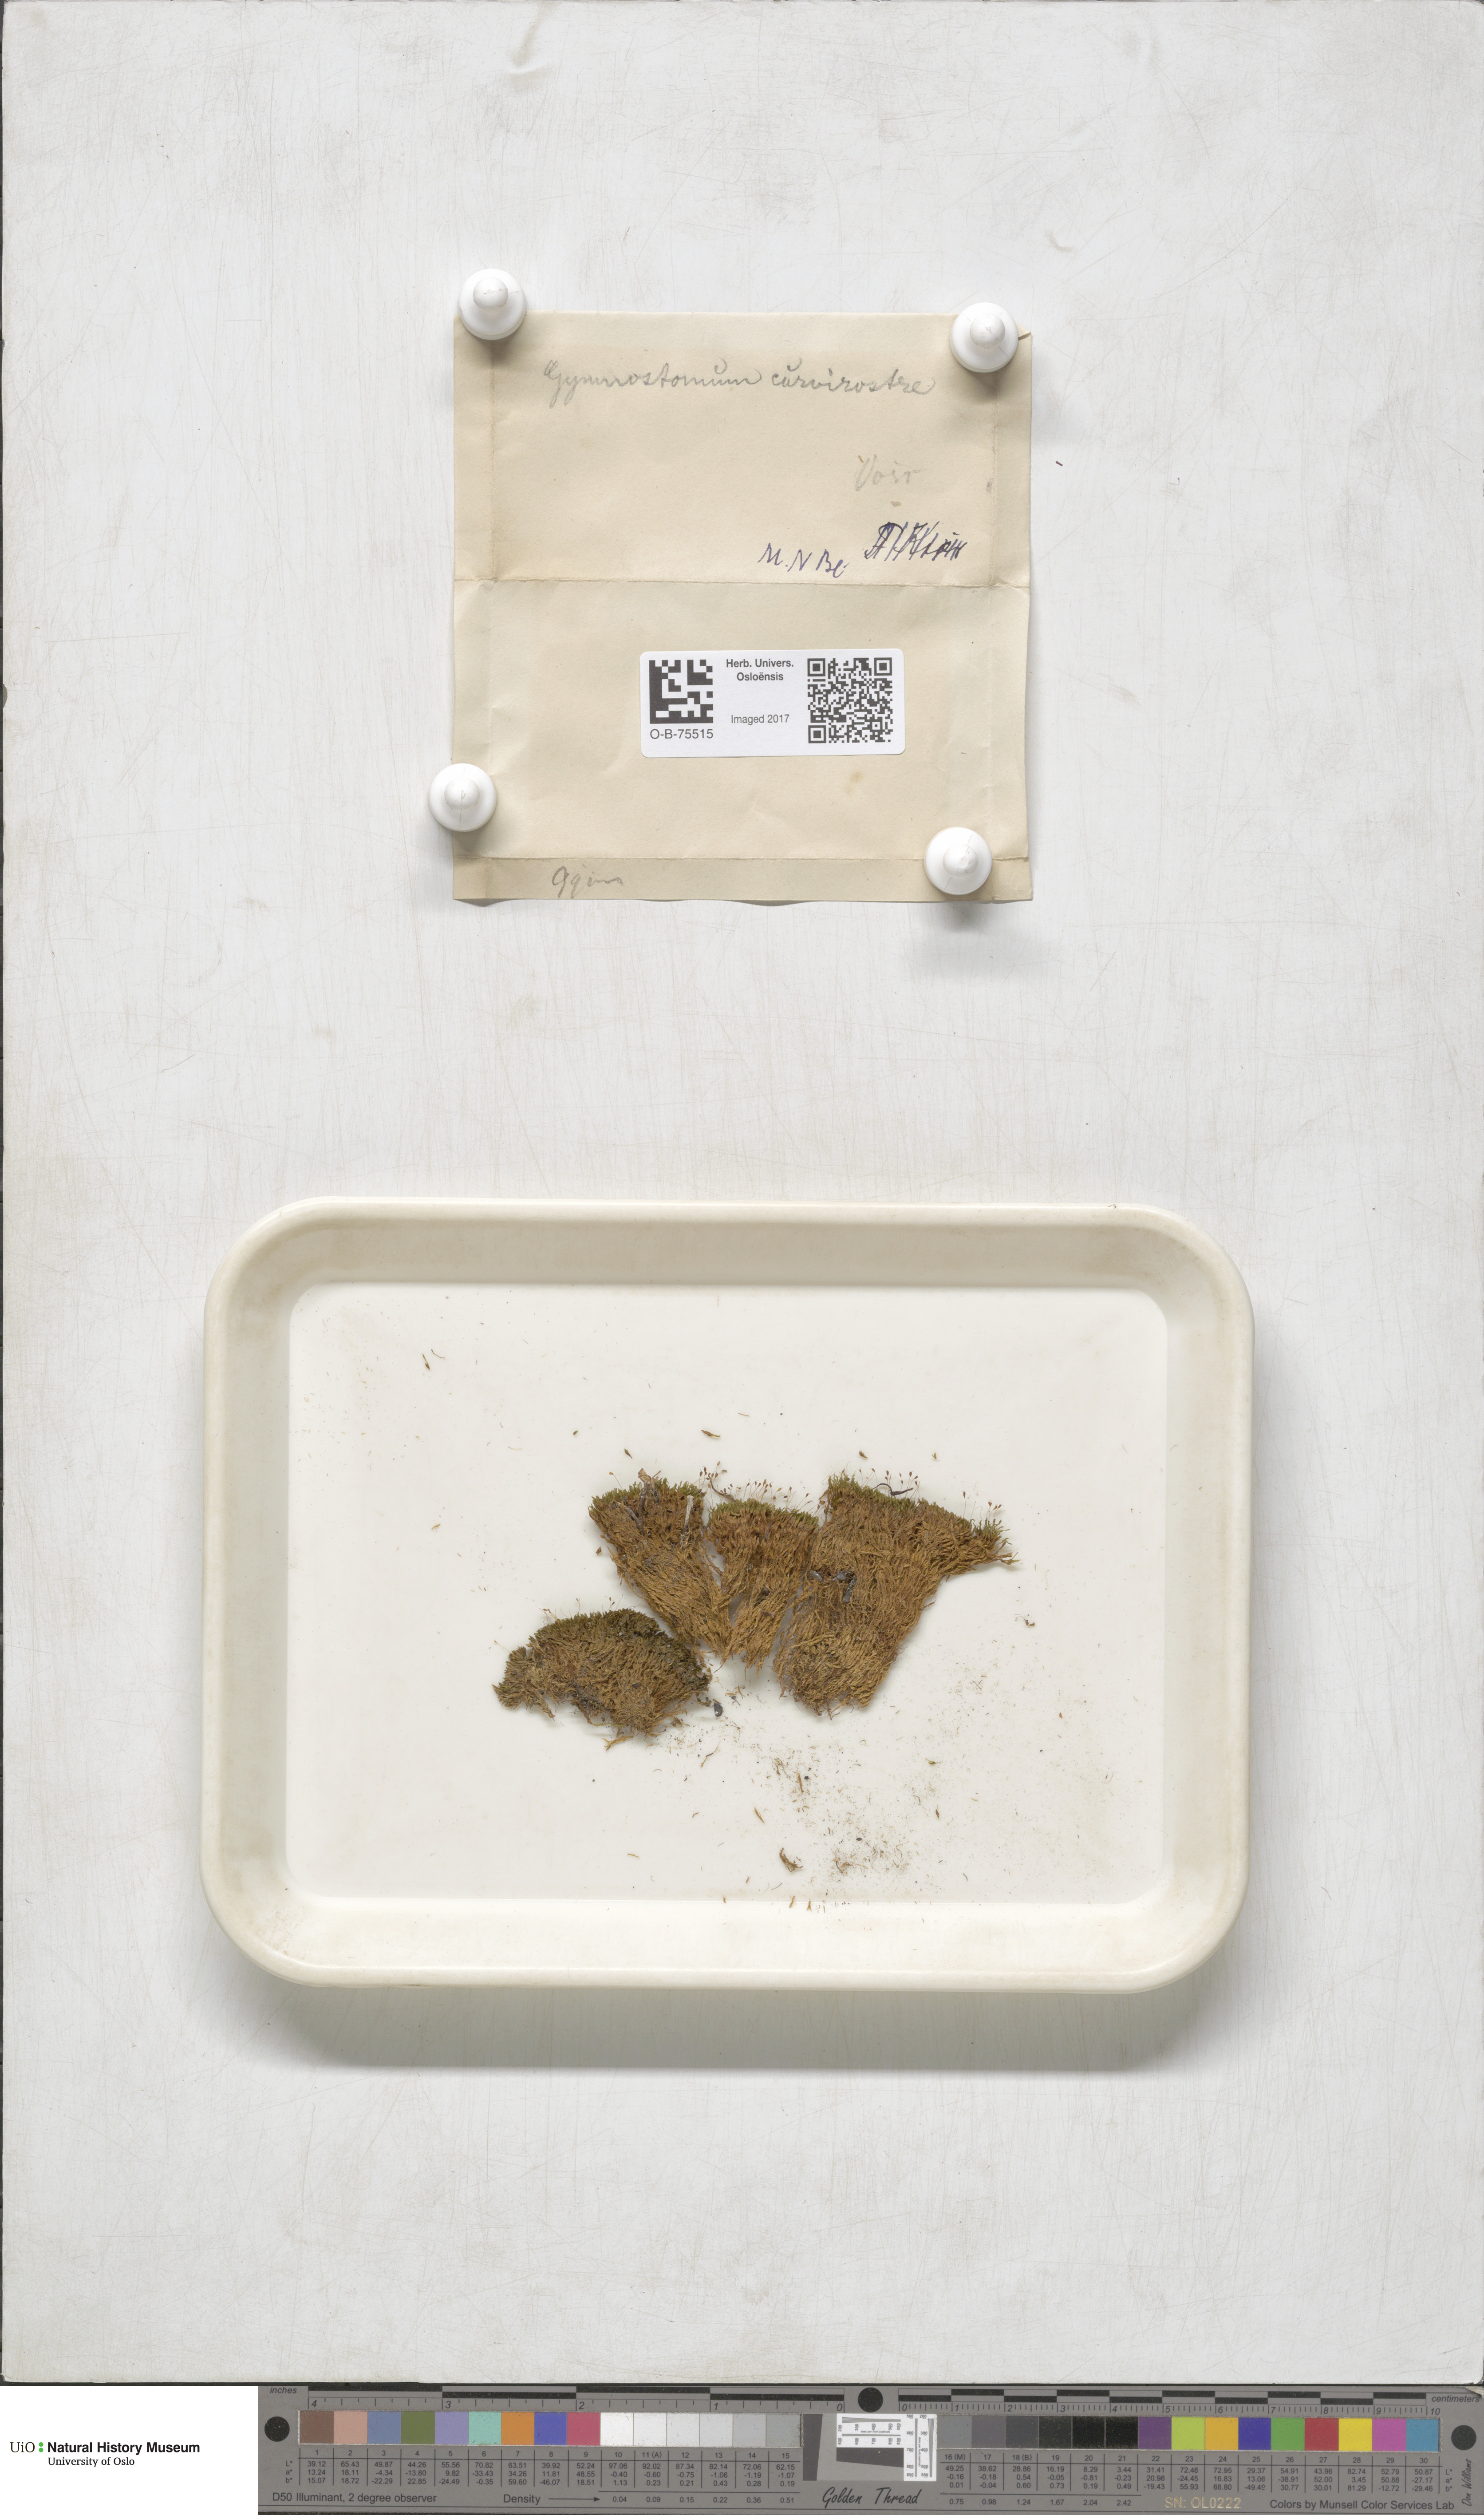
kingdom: Plantae
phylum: Bryophyta
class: Bryopsida
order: Pottiales
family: Pottiaceae
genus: Hymenostylium
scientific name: Hymenostylium recurvirostrum
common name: Hook-beak tufa-moss
